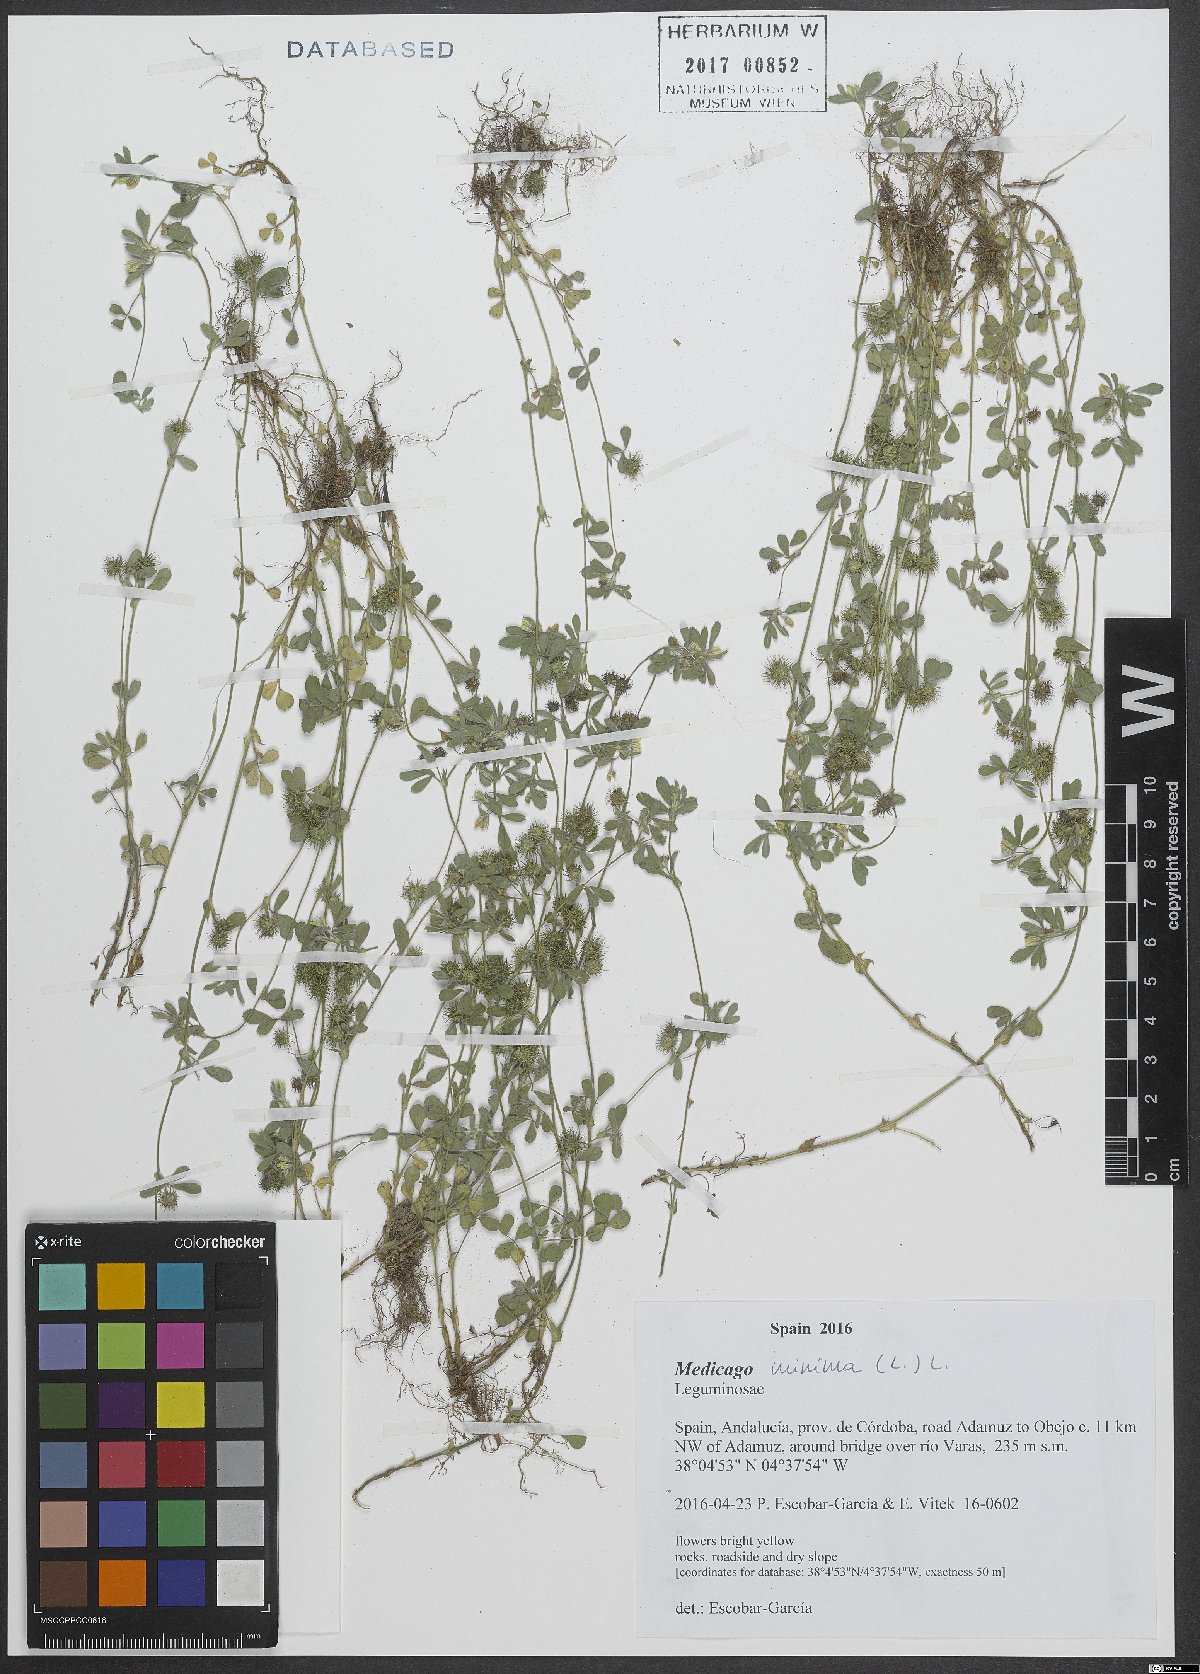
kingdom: Plantae
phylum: Tracheophyta
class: Magnoliopsida
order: Fabales
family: Fabaceae
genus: Medicago
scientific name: Medicago minima
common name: Little bur-clover
